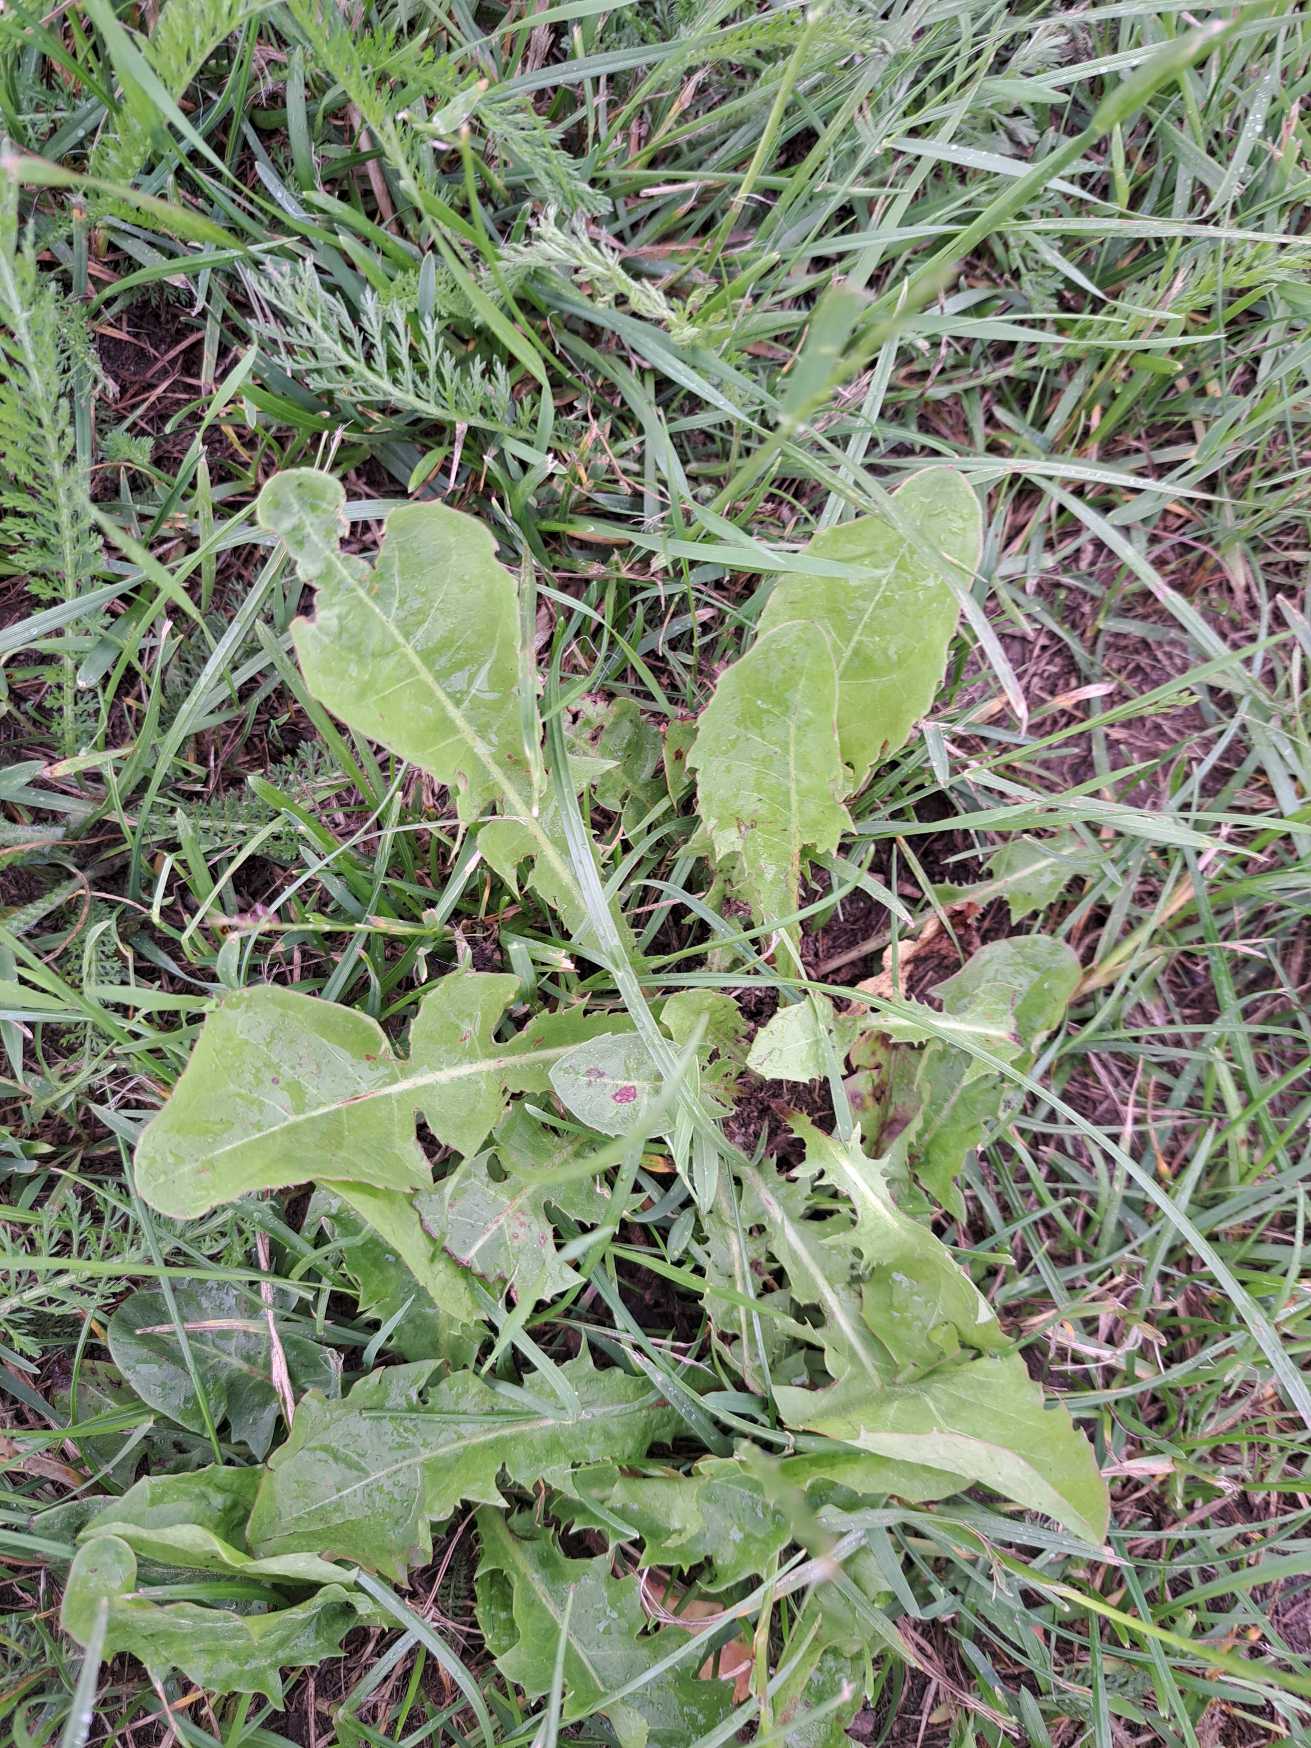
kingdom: Plantae
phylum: Tracheophyta
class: Magnoliopsida
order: Asterales
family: Asteraceae
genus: Taraxacum
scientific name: Taraxacum
